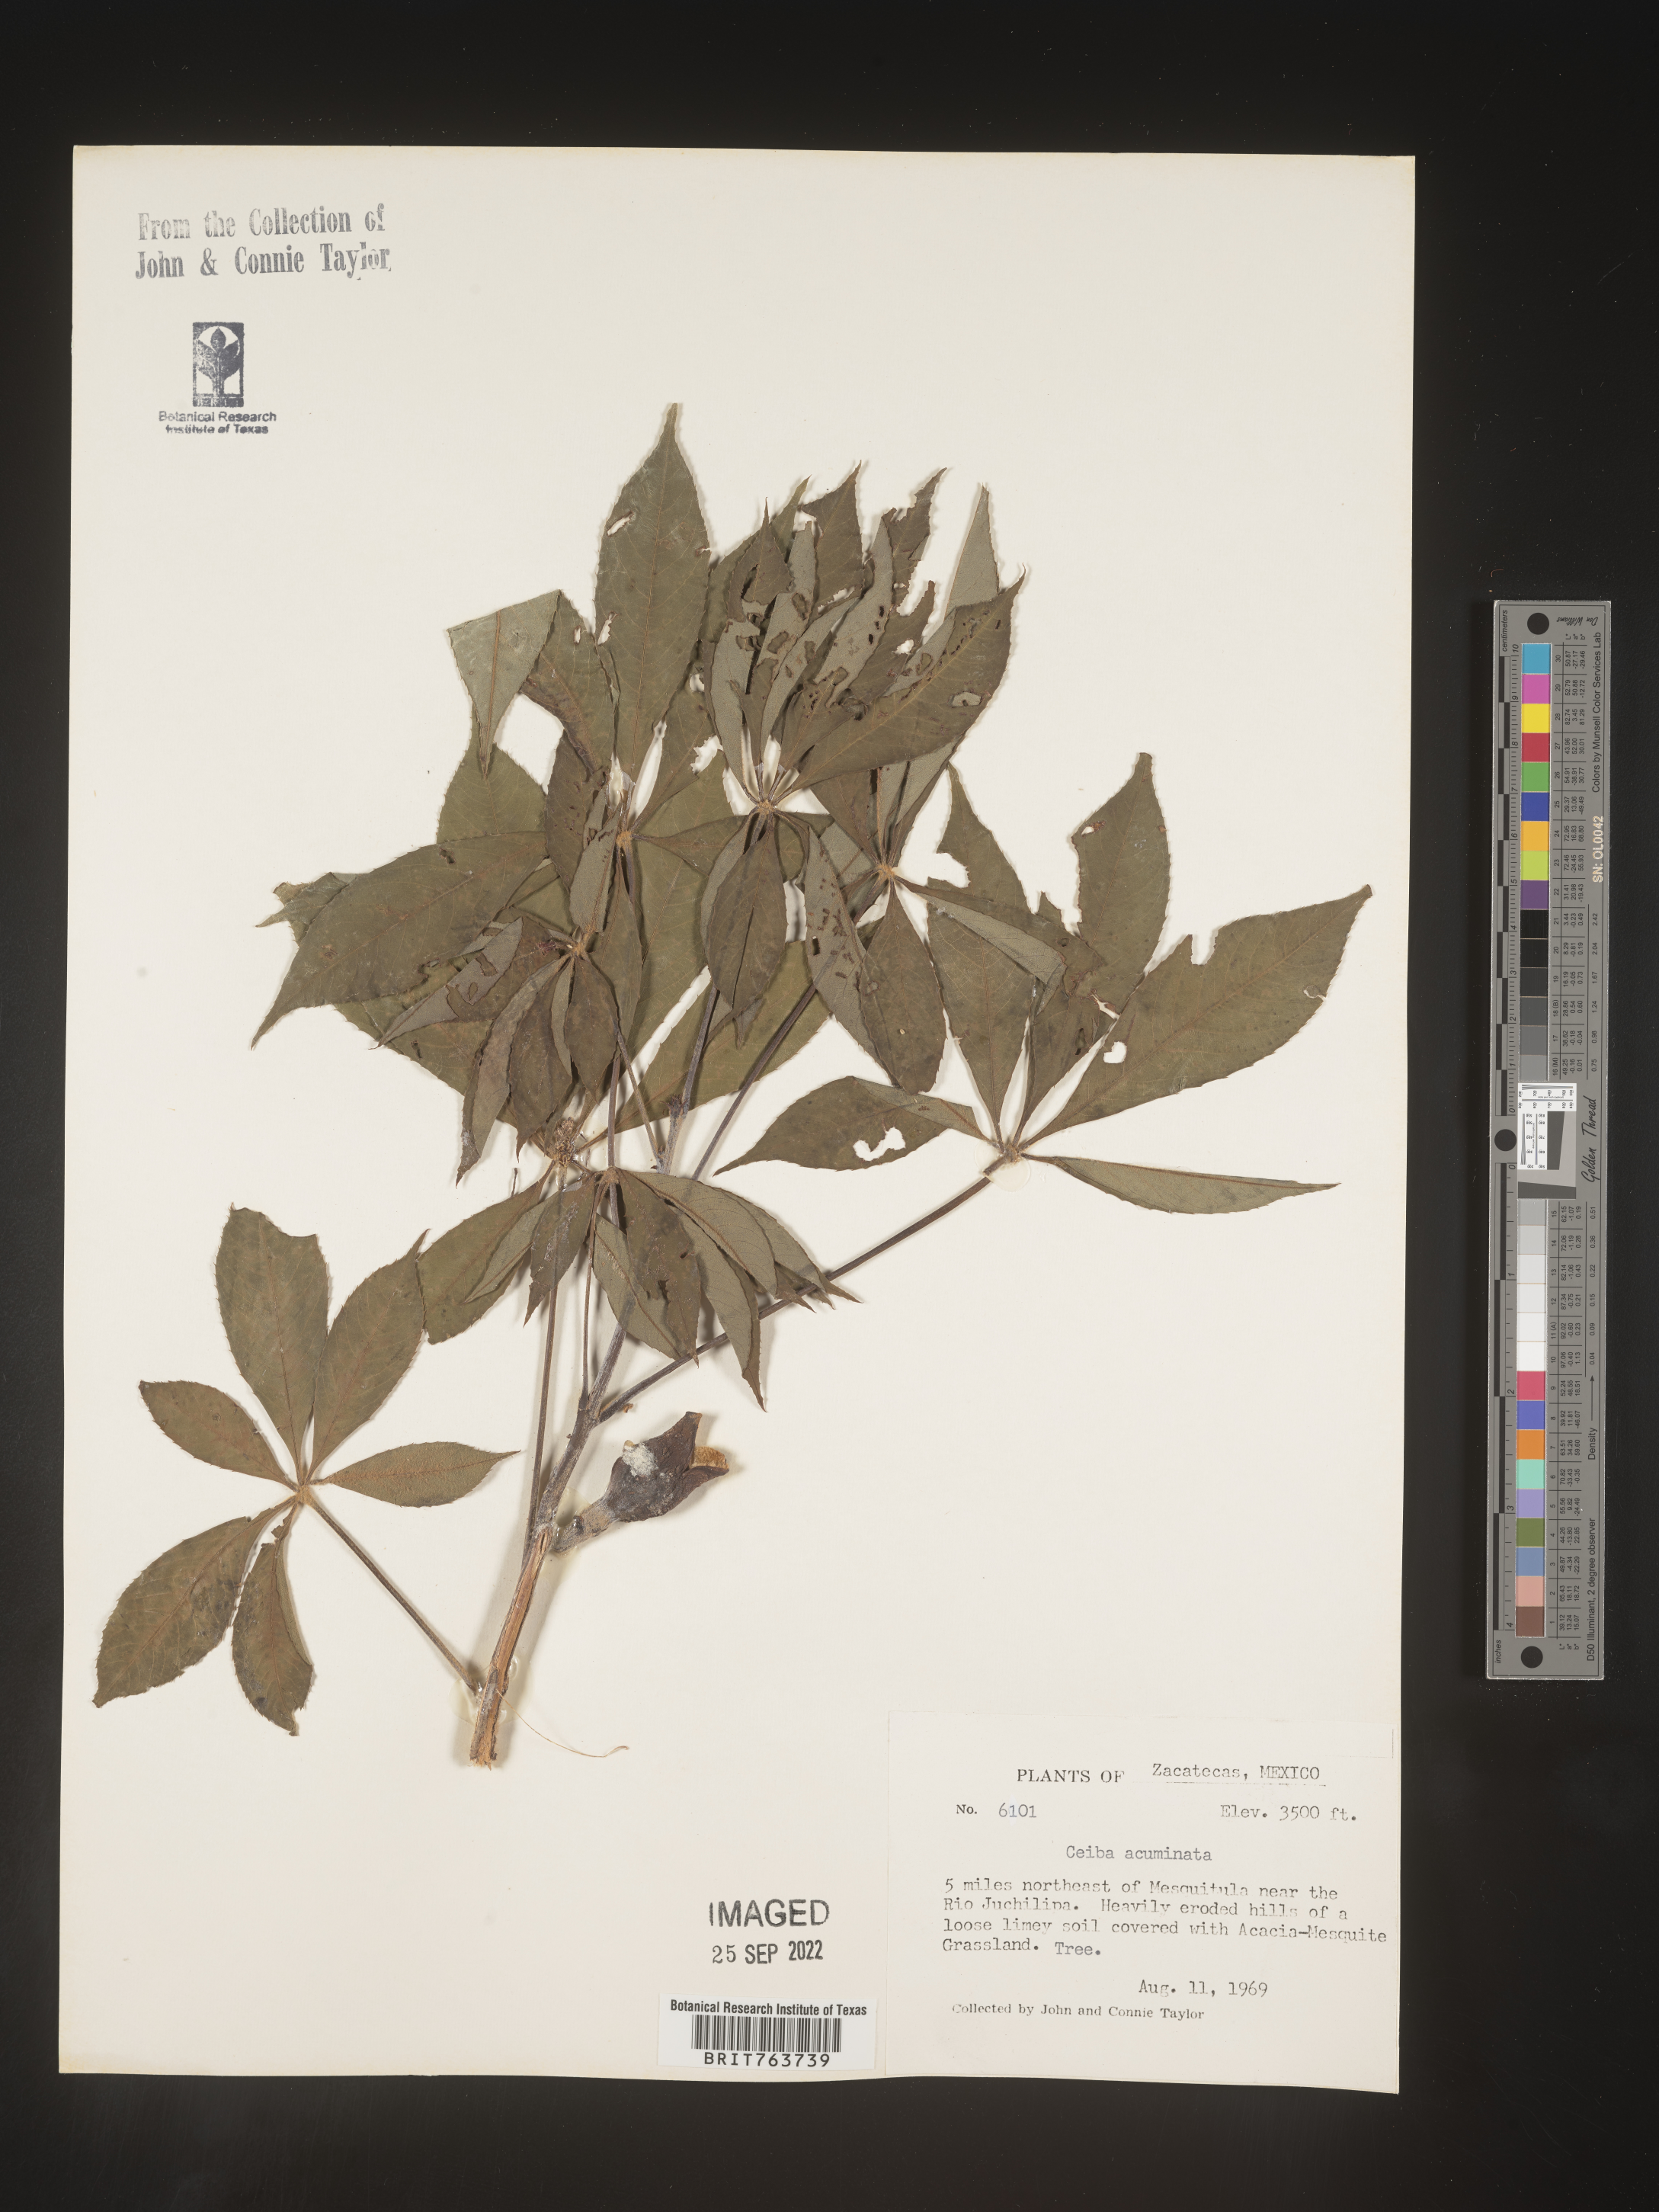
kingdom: Plantae
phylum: Tracheophyta
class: Magnoliopsida
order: Malvales
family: Malvaceae
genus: Ceiba
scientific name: Ceiba
